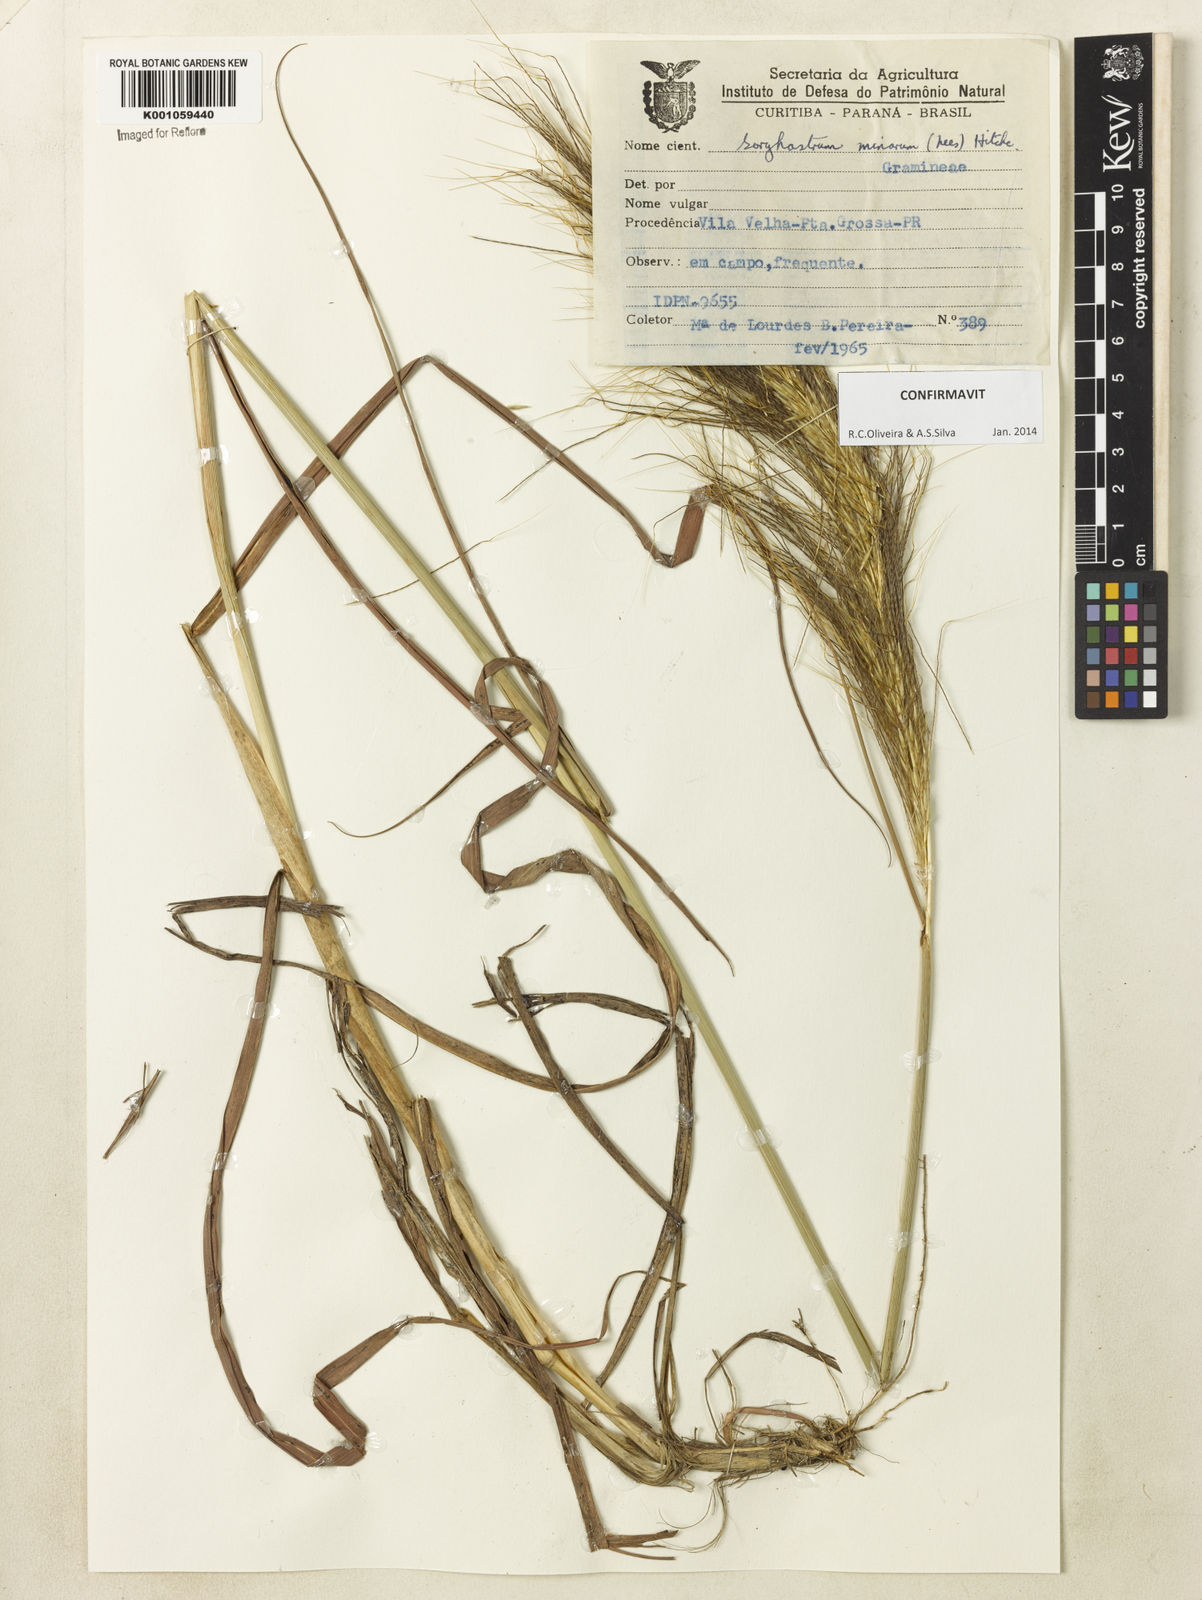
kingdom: Plantae
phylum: Tracheophyta
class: Liliopsida
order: Poales
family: Poaceae
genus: Sorghastrum
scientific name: Sorghastrum minarum
